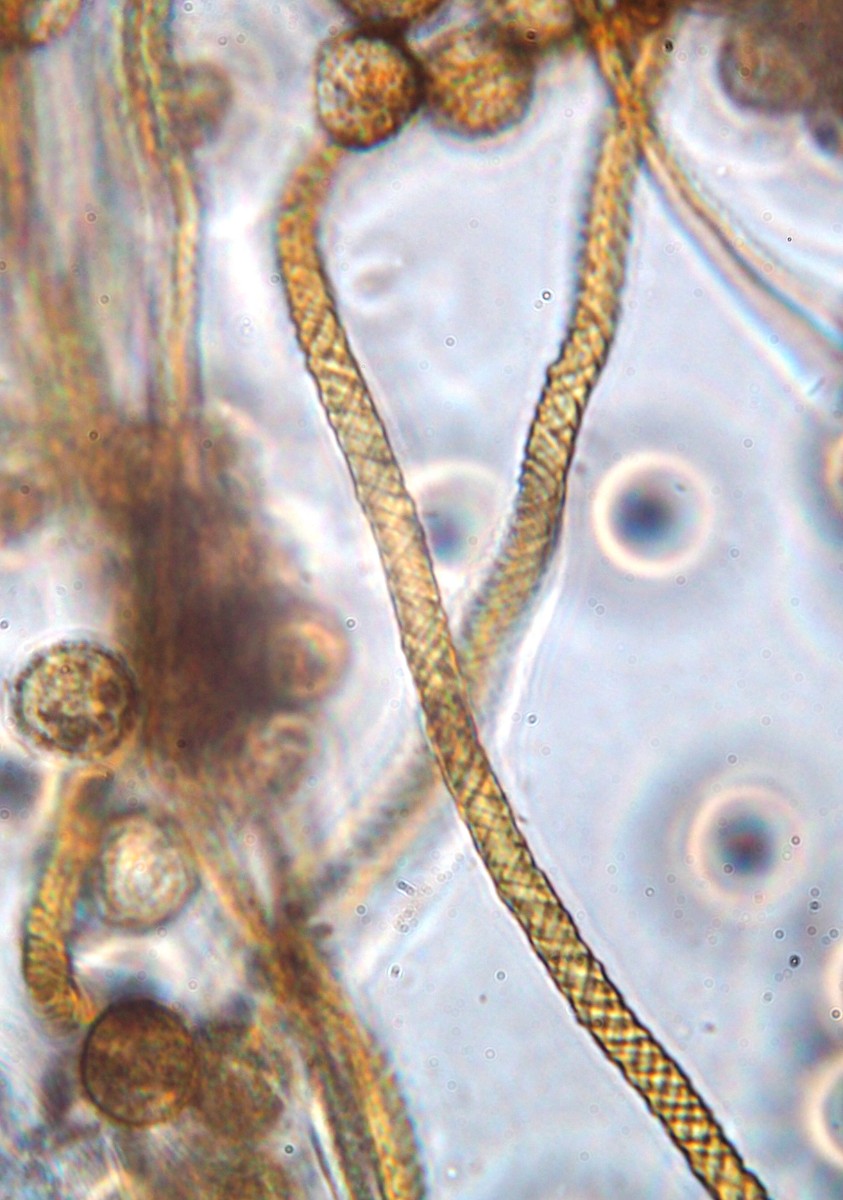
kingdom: Protozoa
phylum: Mycetozoa
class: Myxomycetes
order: Trichiales
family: Trichiaceae
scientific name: Trichiaceae
